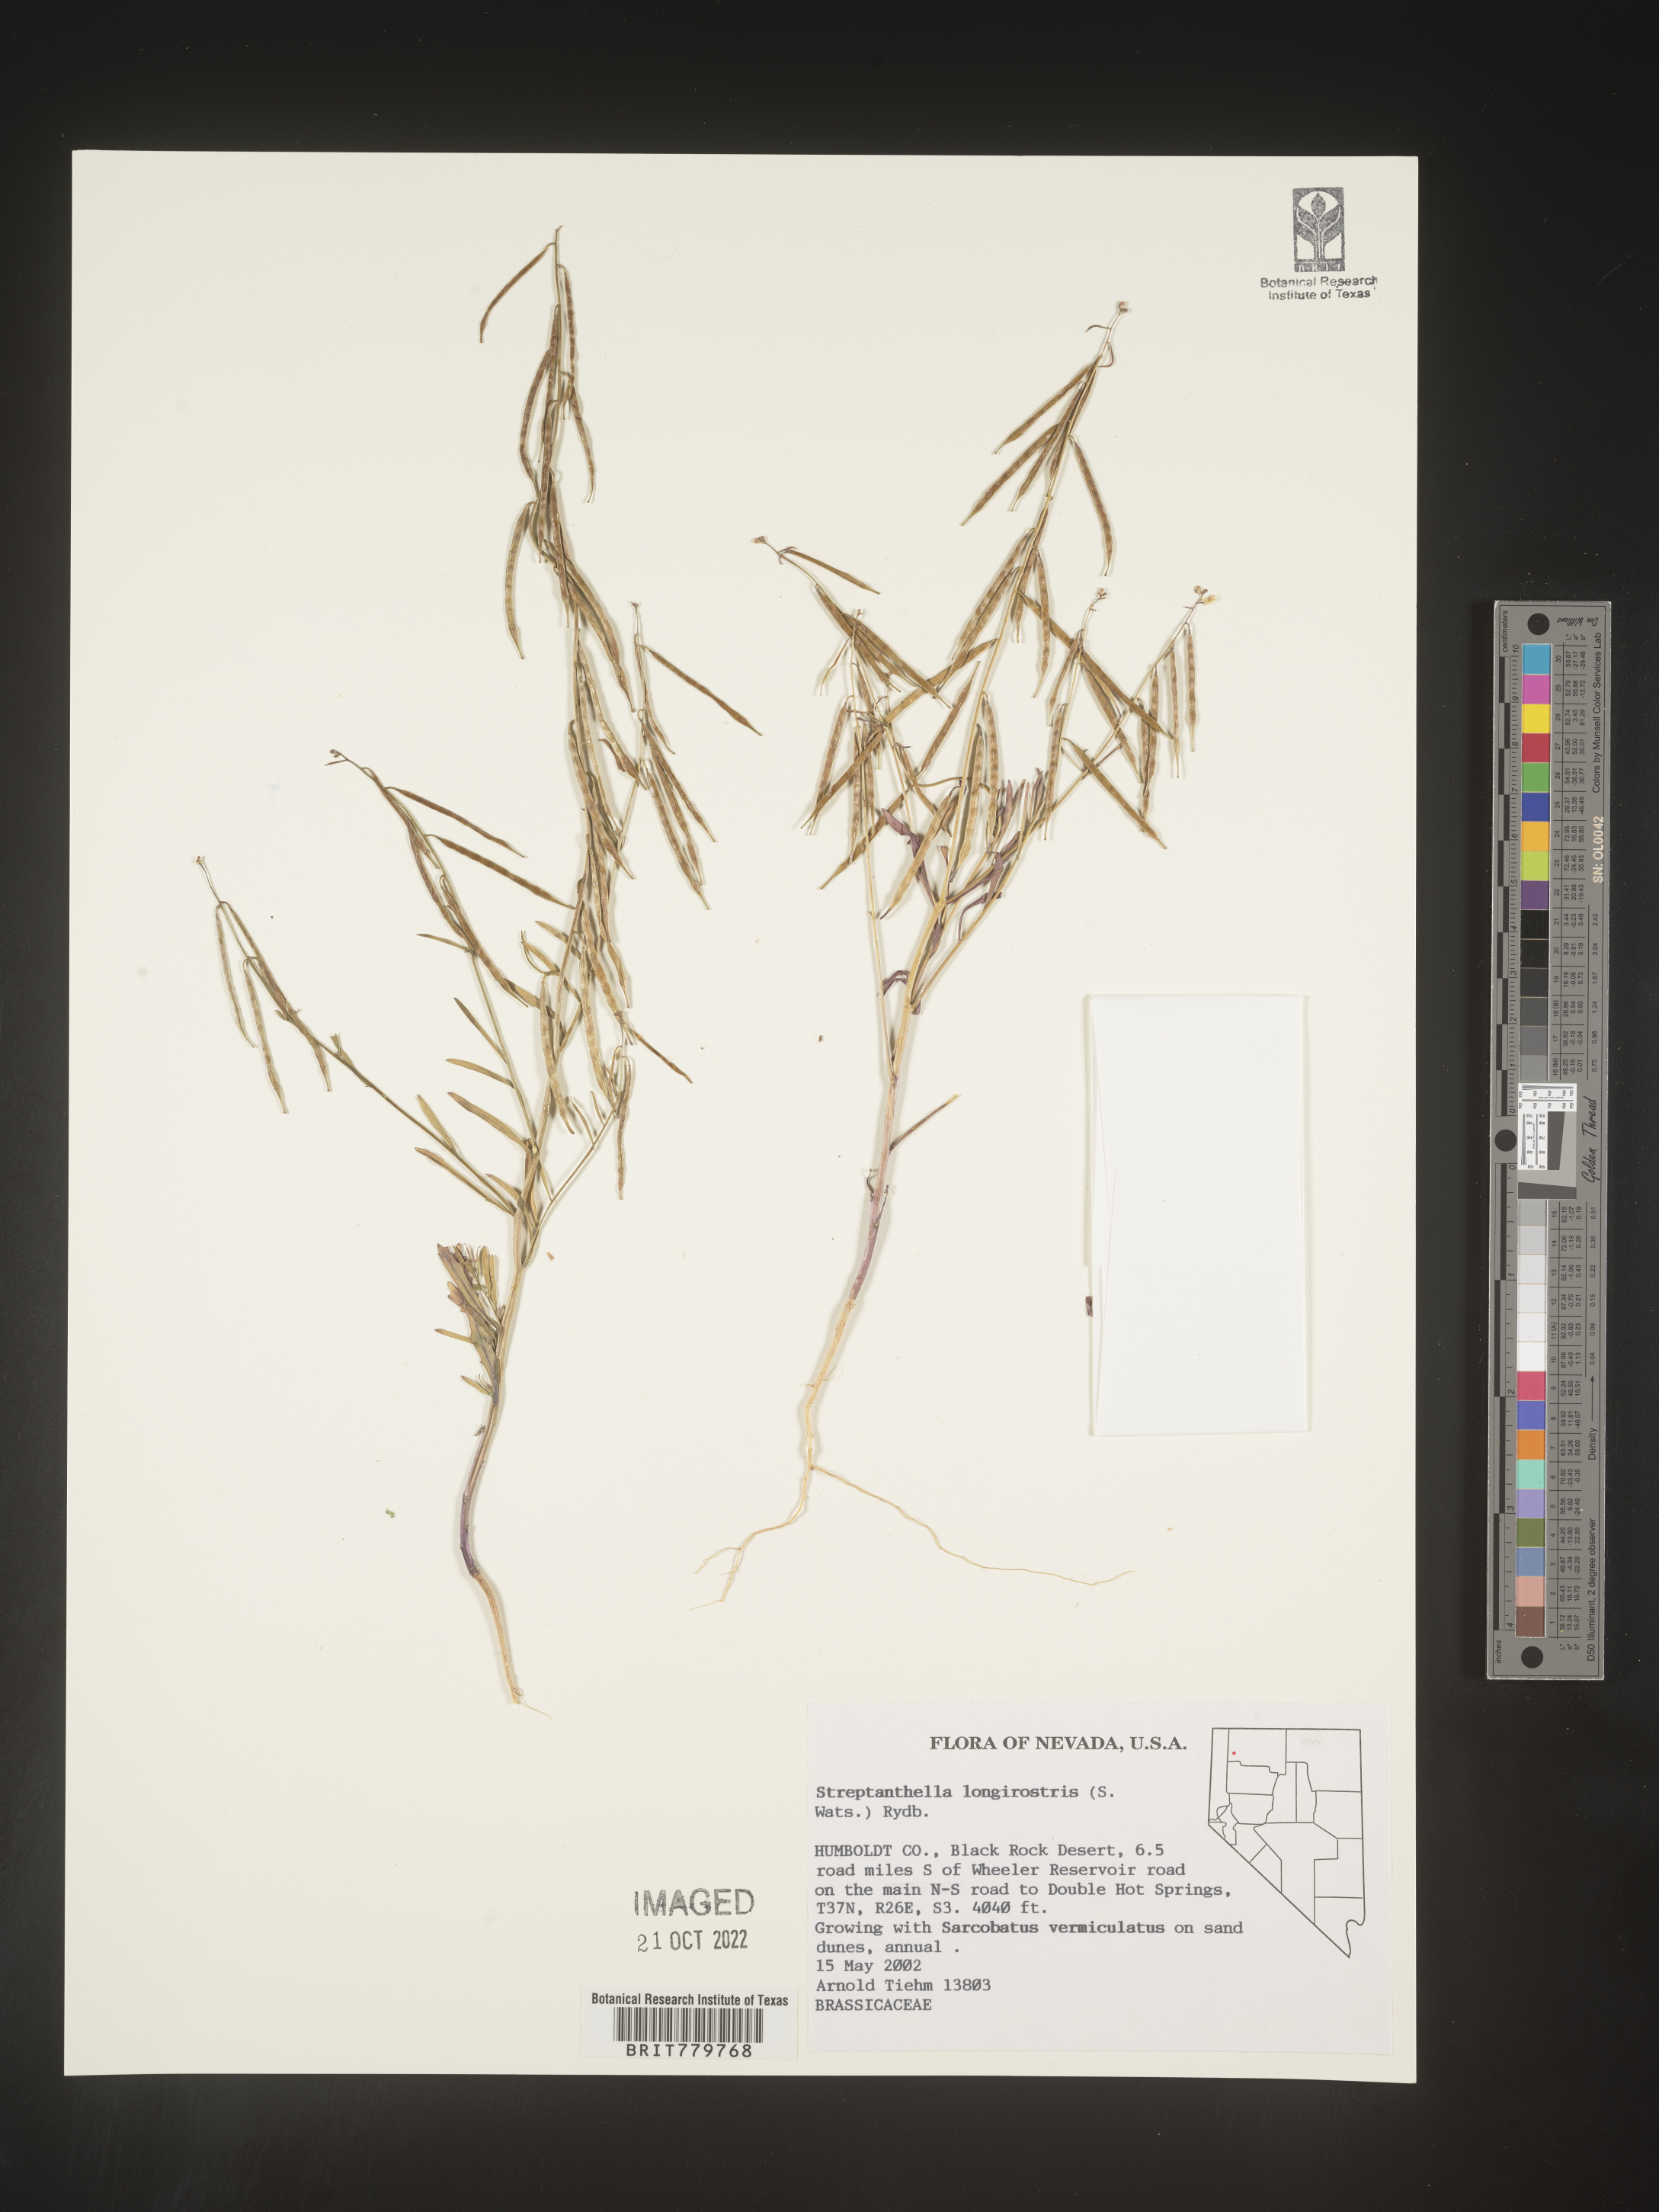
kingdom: Plantae
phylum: Tracheophyta
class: Magnoliopsida
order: Brassicales
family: Brassicaceae
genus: Streptanthus
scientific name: Streptanthus
